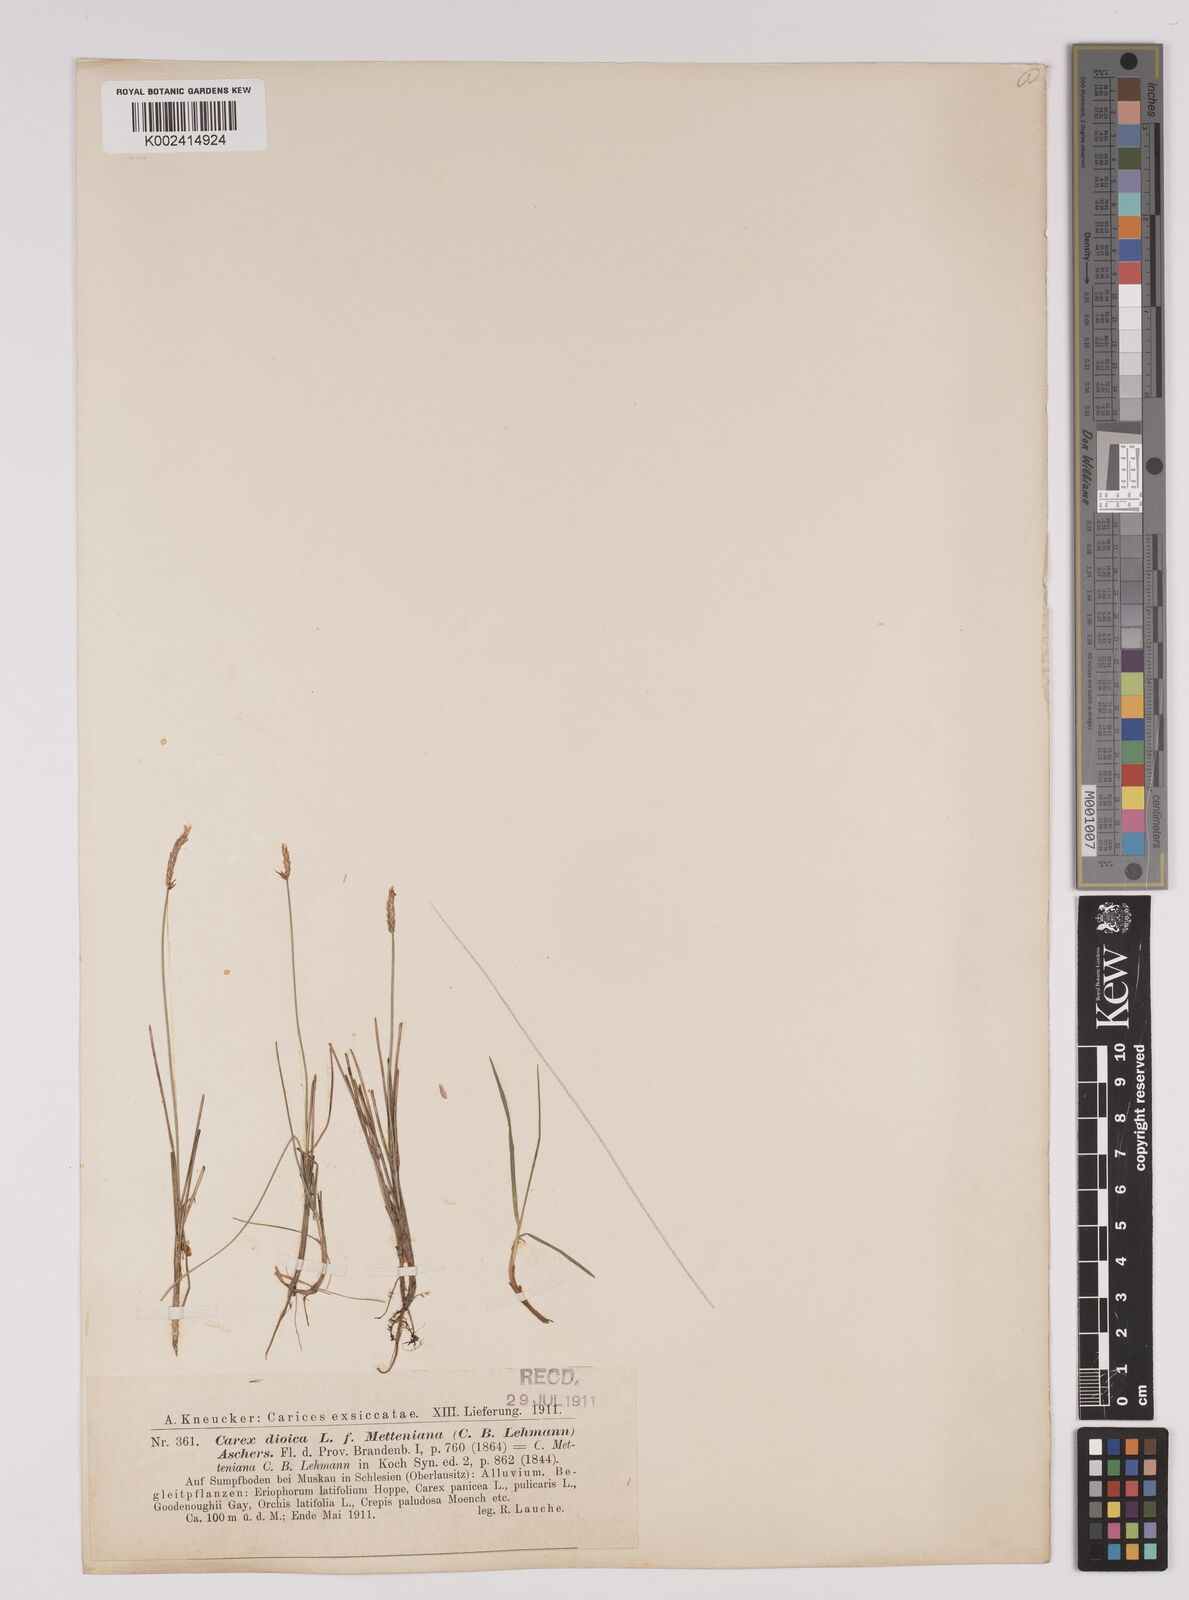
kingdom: Plantae
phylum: Tracheophyta
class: Liliopsida
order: Poales
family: Cyperaceae
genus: Carex
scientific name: Carex dioica
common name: Dioecious sedge
